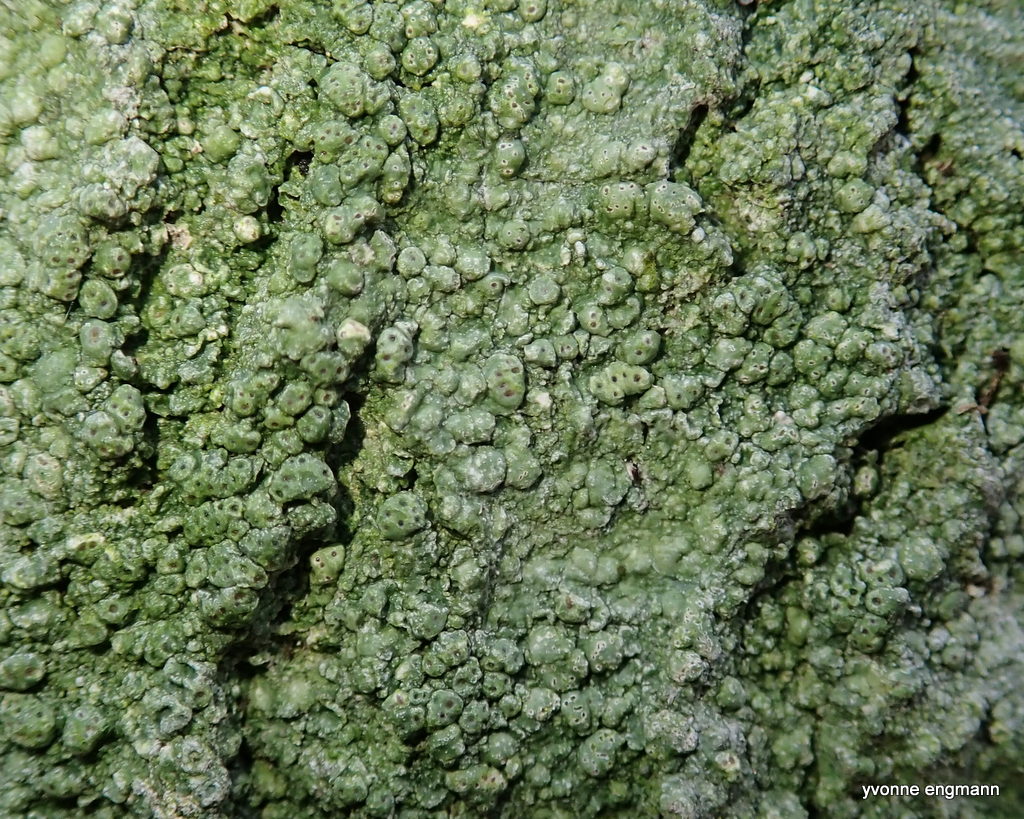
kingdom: Fungi
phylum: Ascomycota
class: Lecanoromycetes
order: Pertusariales
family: Pertusariaceae
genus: Pertusaria
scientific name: Pertusaria pertusa
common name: almindelig prikvortelav
